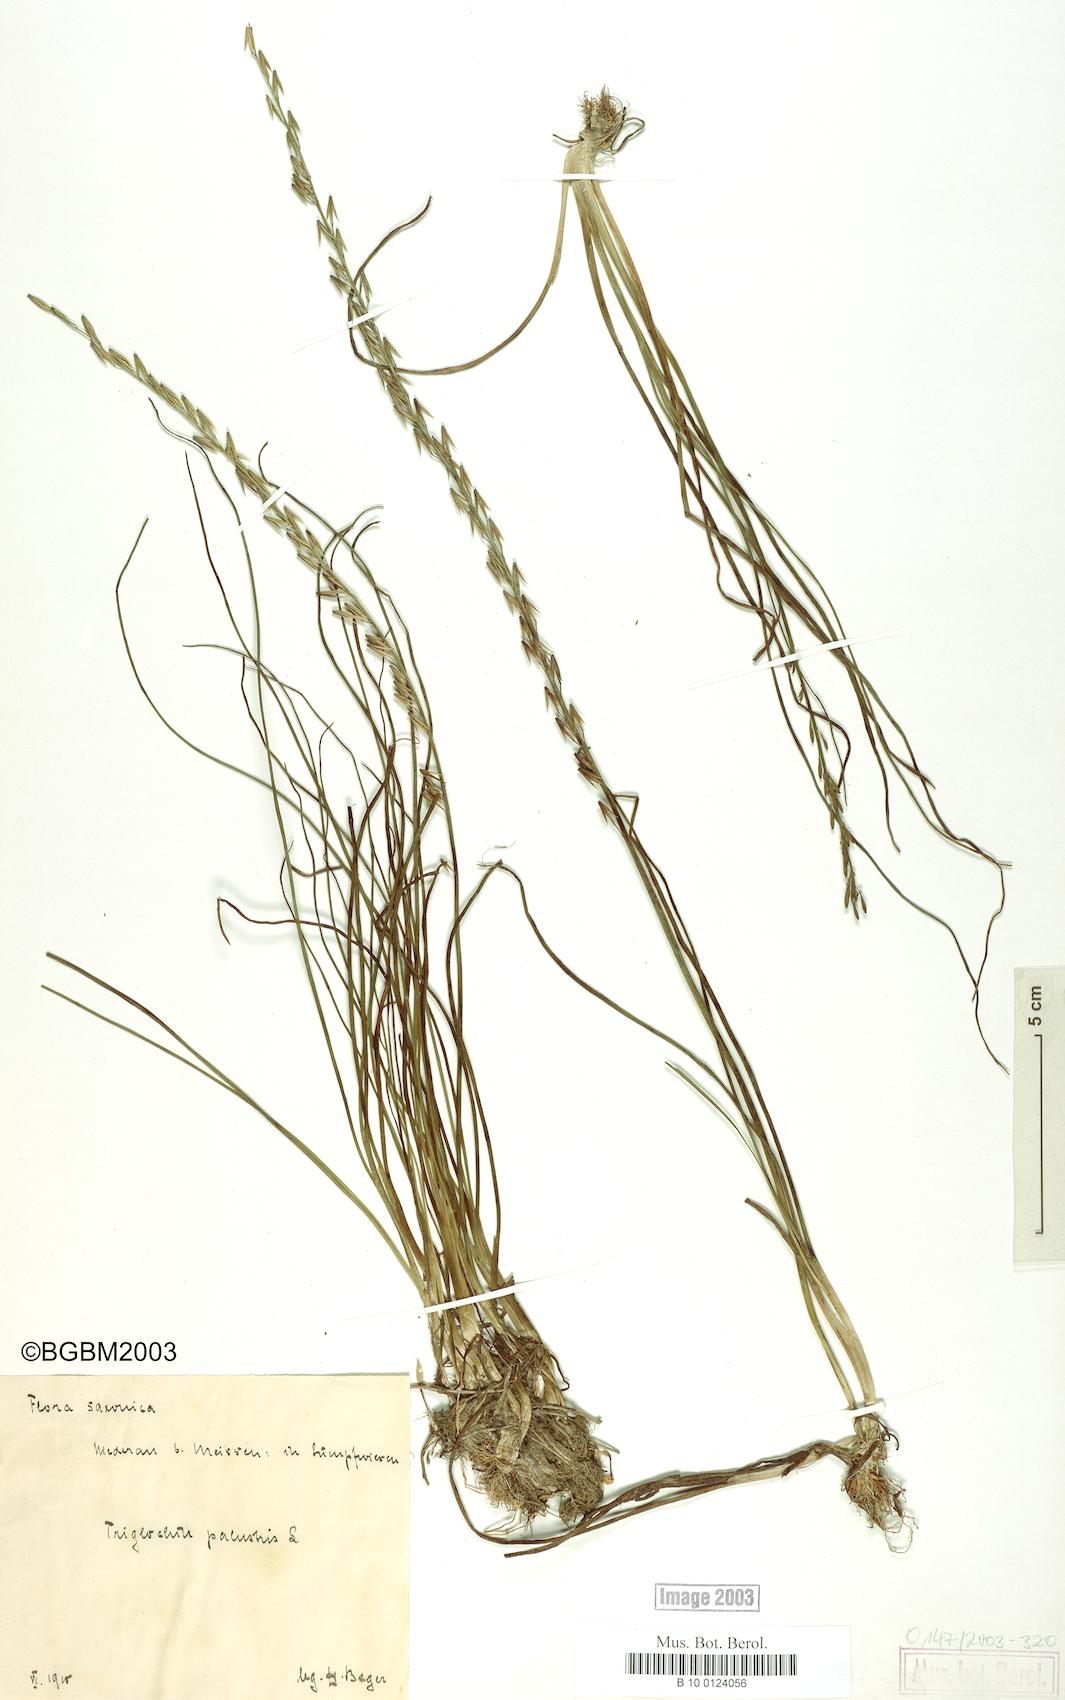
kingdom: Plantae
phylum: Tracheophyta
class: Liliopsida
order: Alismatales
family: Juncaginaceae
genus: Triglochin
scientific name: Triglochin palustris
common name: Marsh arrowgrass
